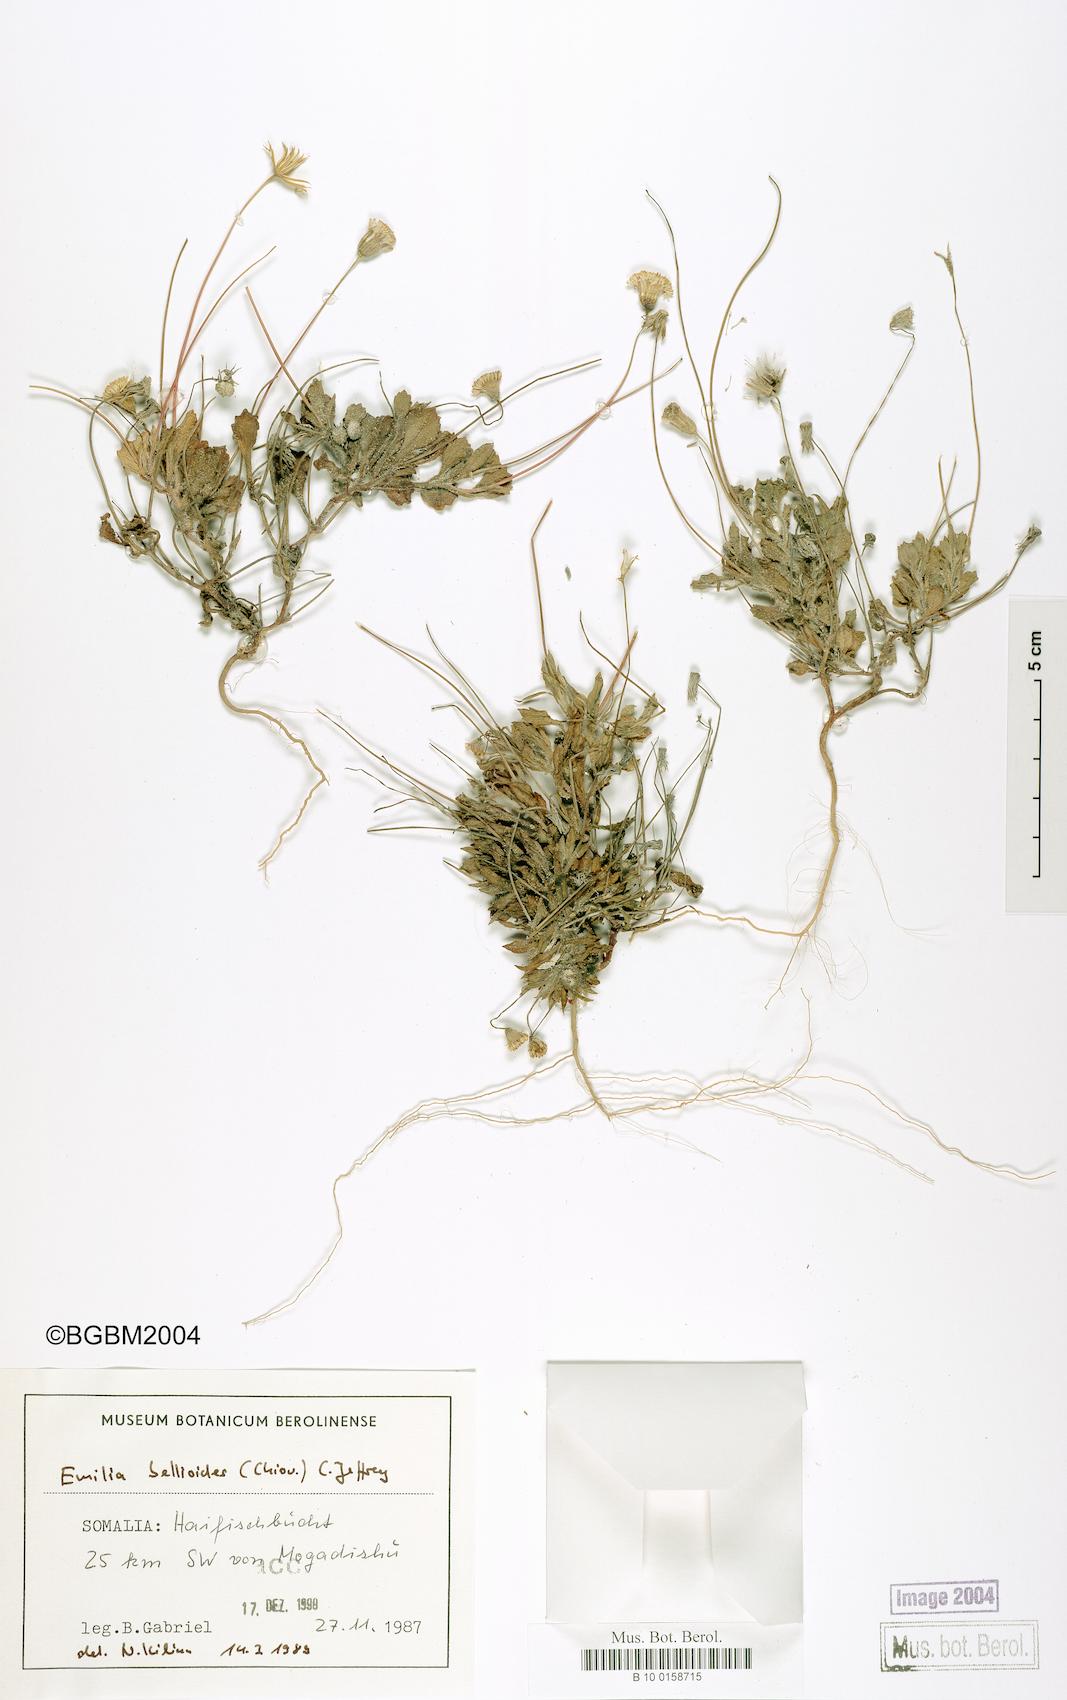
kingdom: Plantae
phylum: Tracheophyta
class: Magnoliopsida
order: Asterales
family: Asteraceae
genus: Emilia
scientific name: Emilia bellioides
